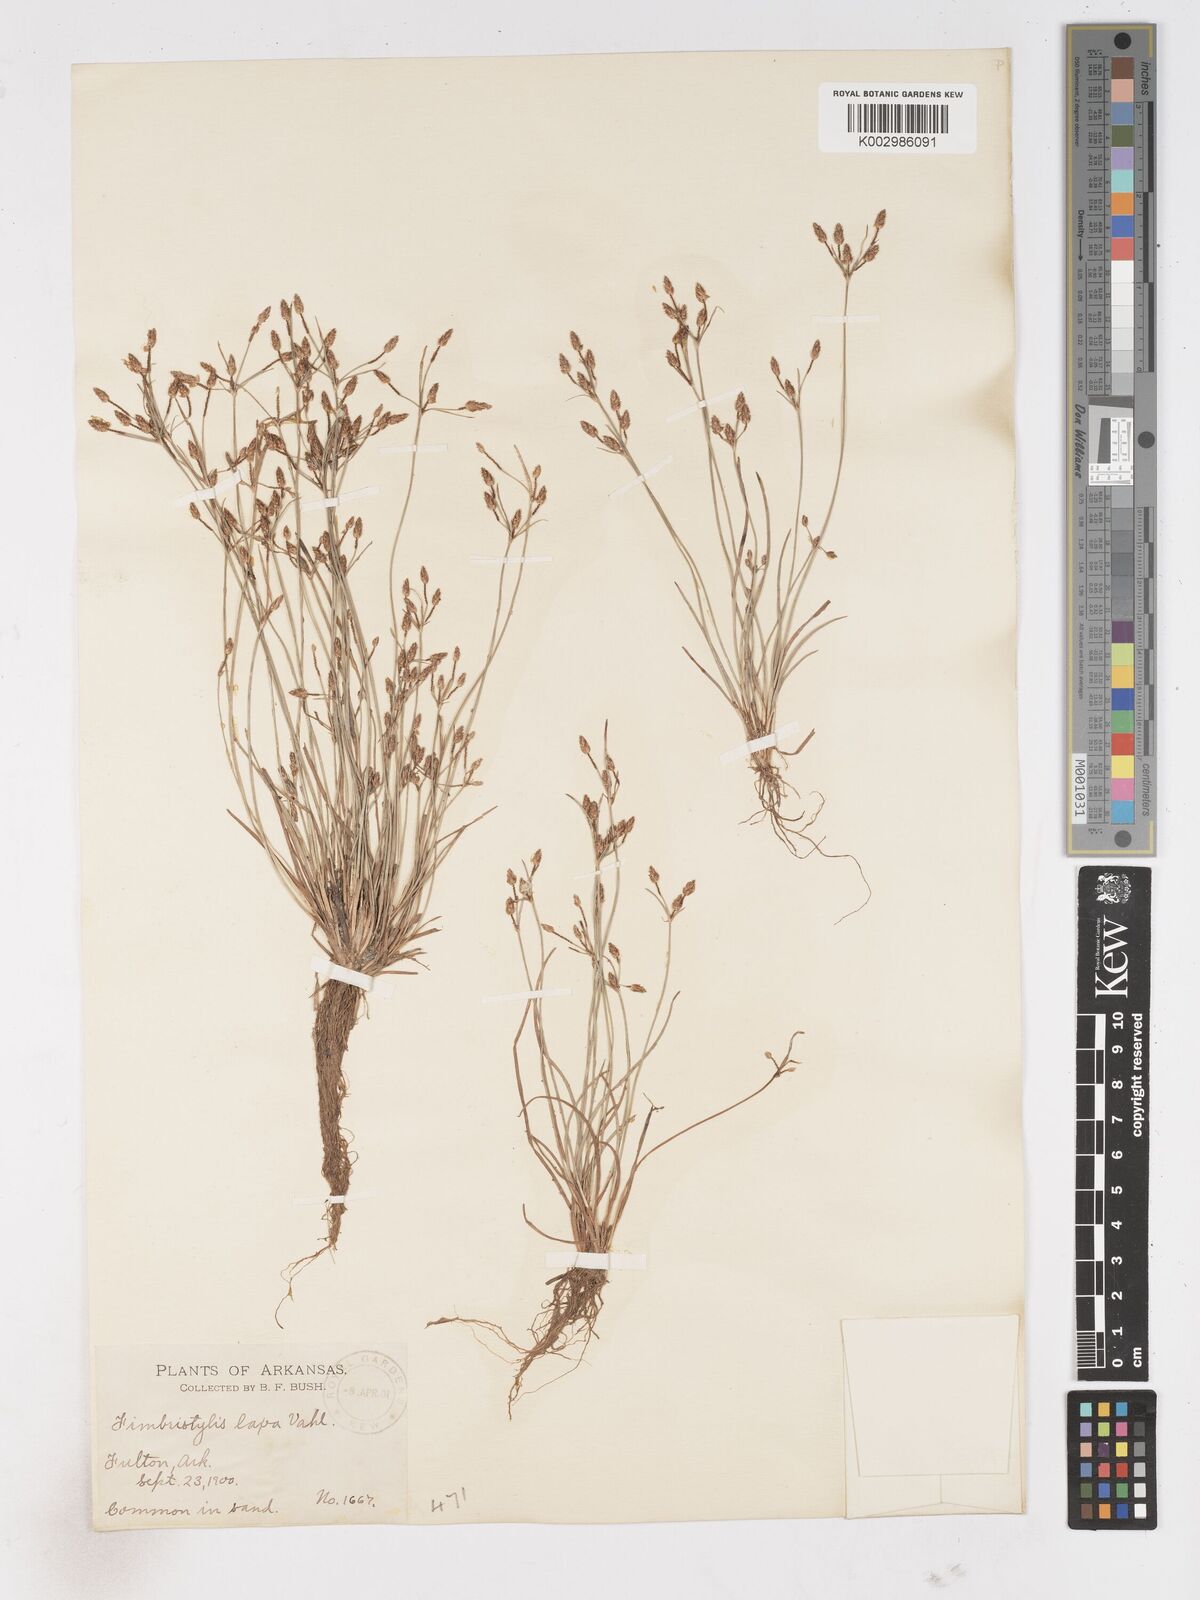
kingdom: Plantae
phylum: Tracheophyta
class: Liliopsida
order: Poales
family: Cyperaceae
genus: Fimbristylis
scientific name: Fimbristylis dichotoma
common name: Forked fimbry
